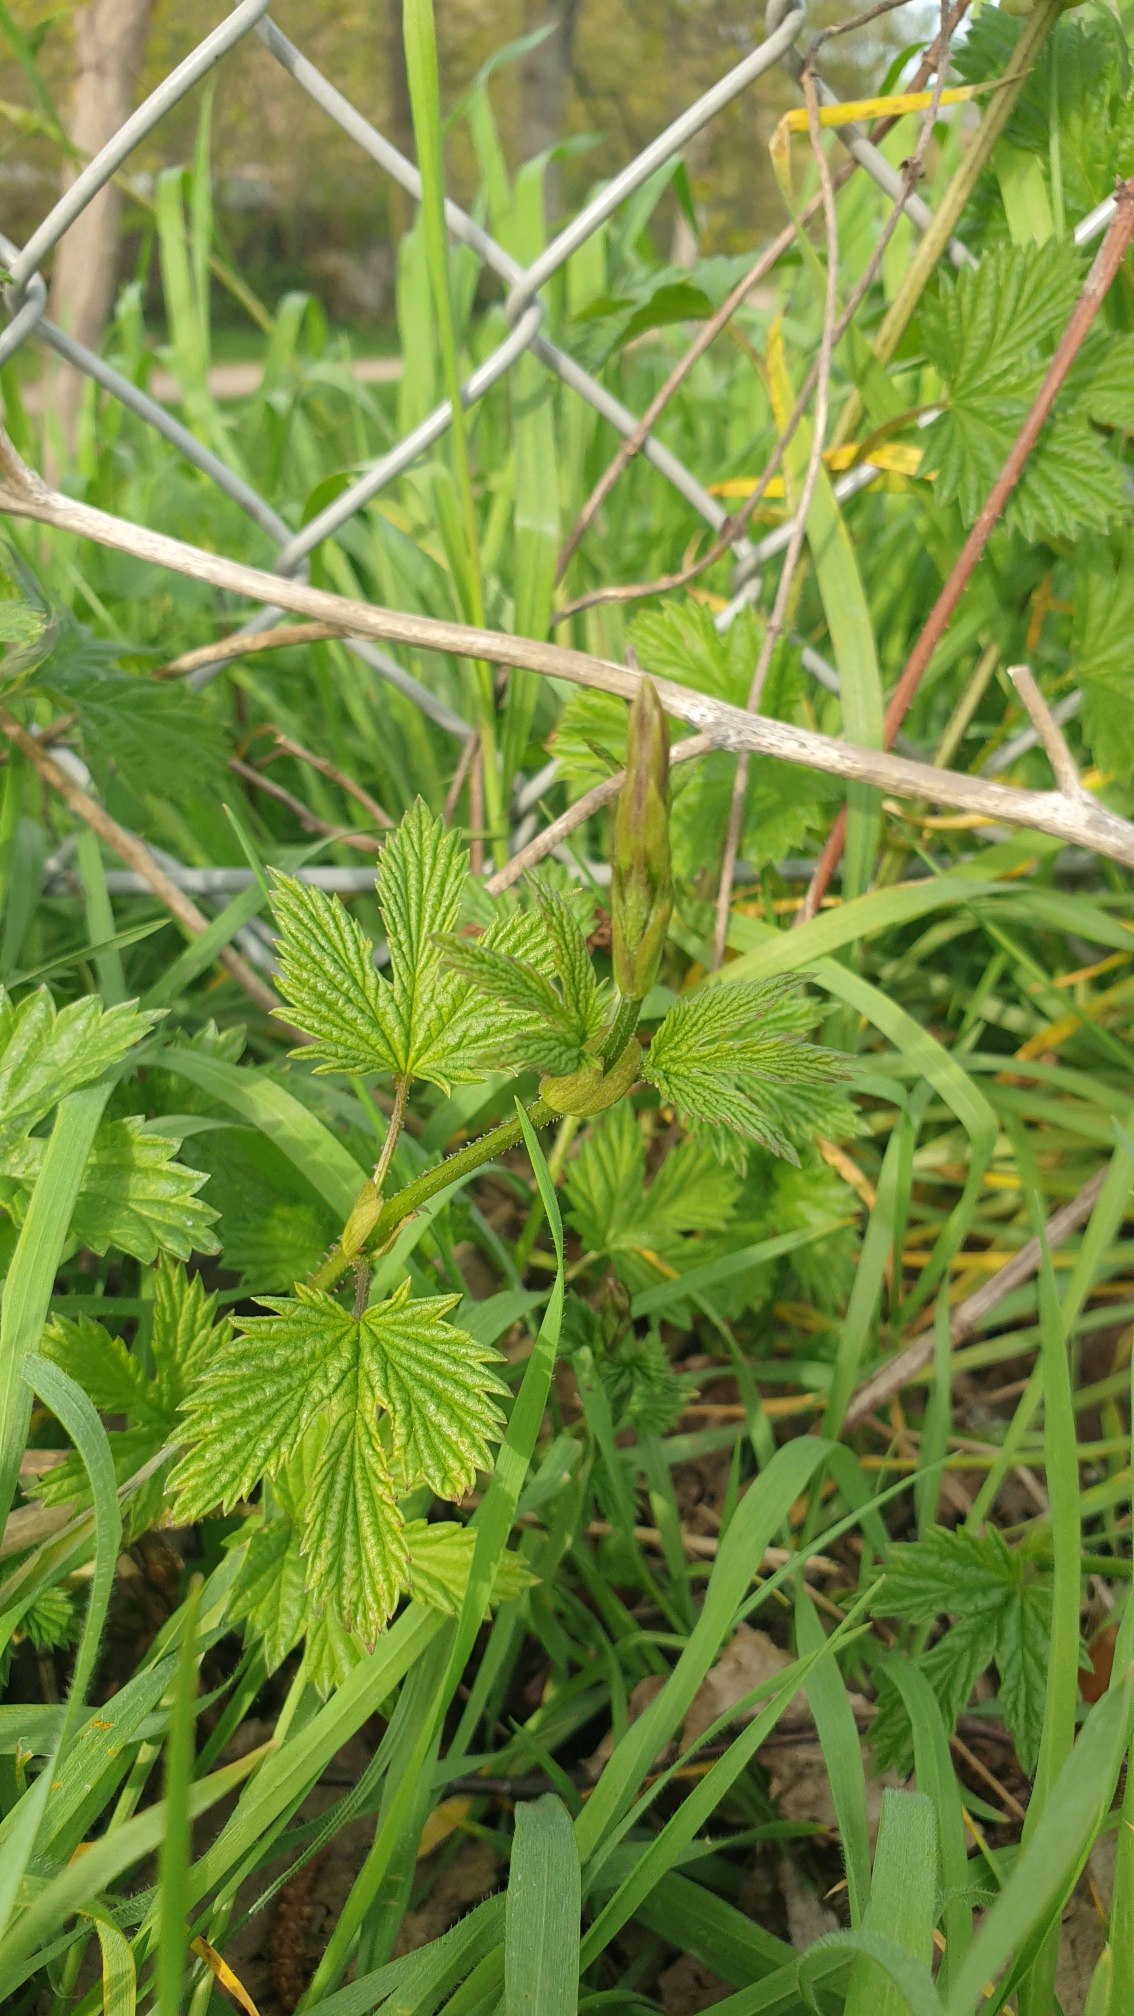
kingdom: Plantae
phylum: Tracheophyta
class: Magnoliopsida
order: Rosales
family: Cannabaceae
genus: Humulus
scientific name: Humulus lupulus
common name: Humle
